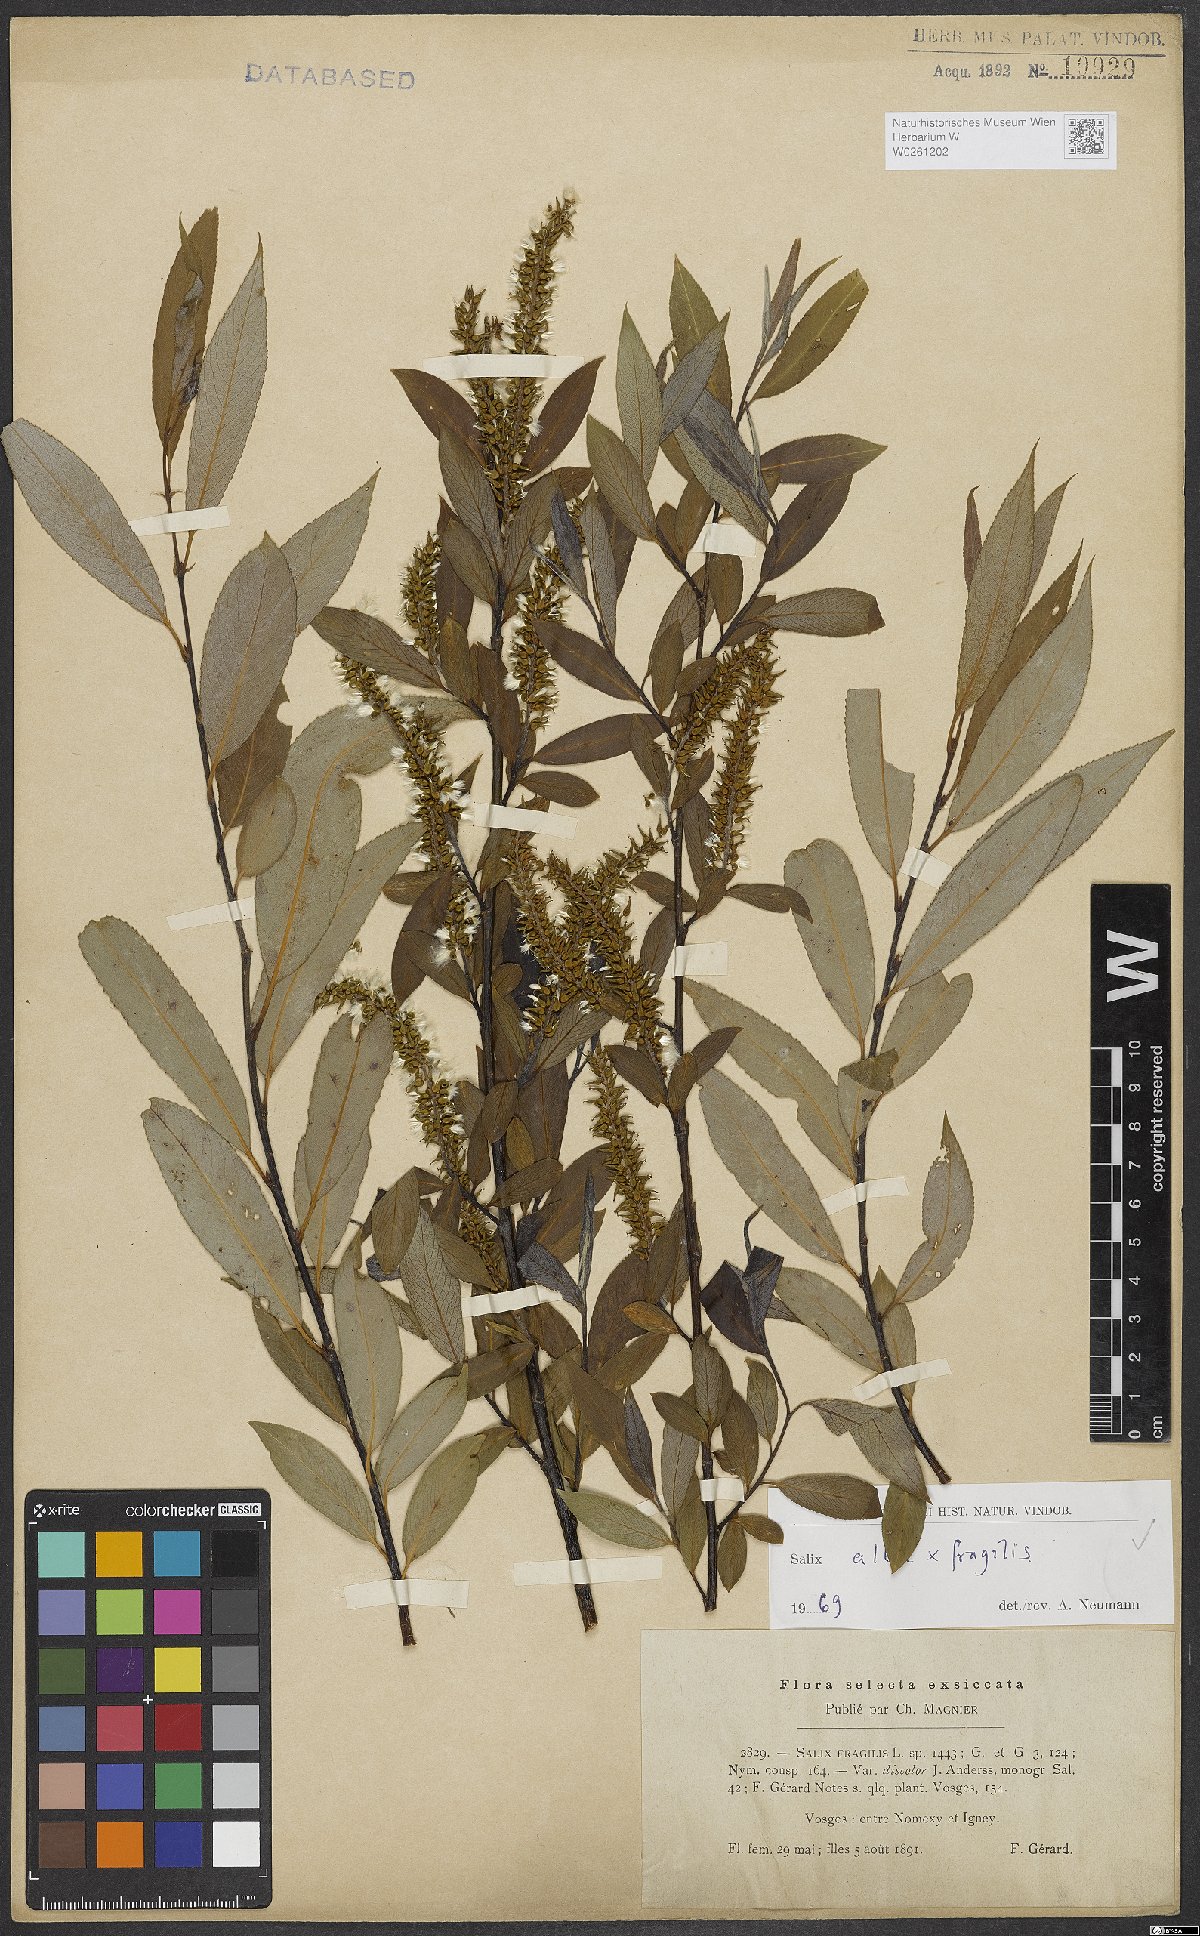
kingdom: Plantae
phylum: Tracheophyta
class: Magnoliopsida
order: Malpighiales
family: Salicaceae
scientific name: Salicaceae
